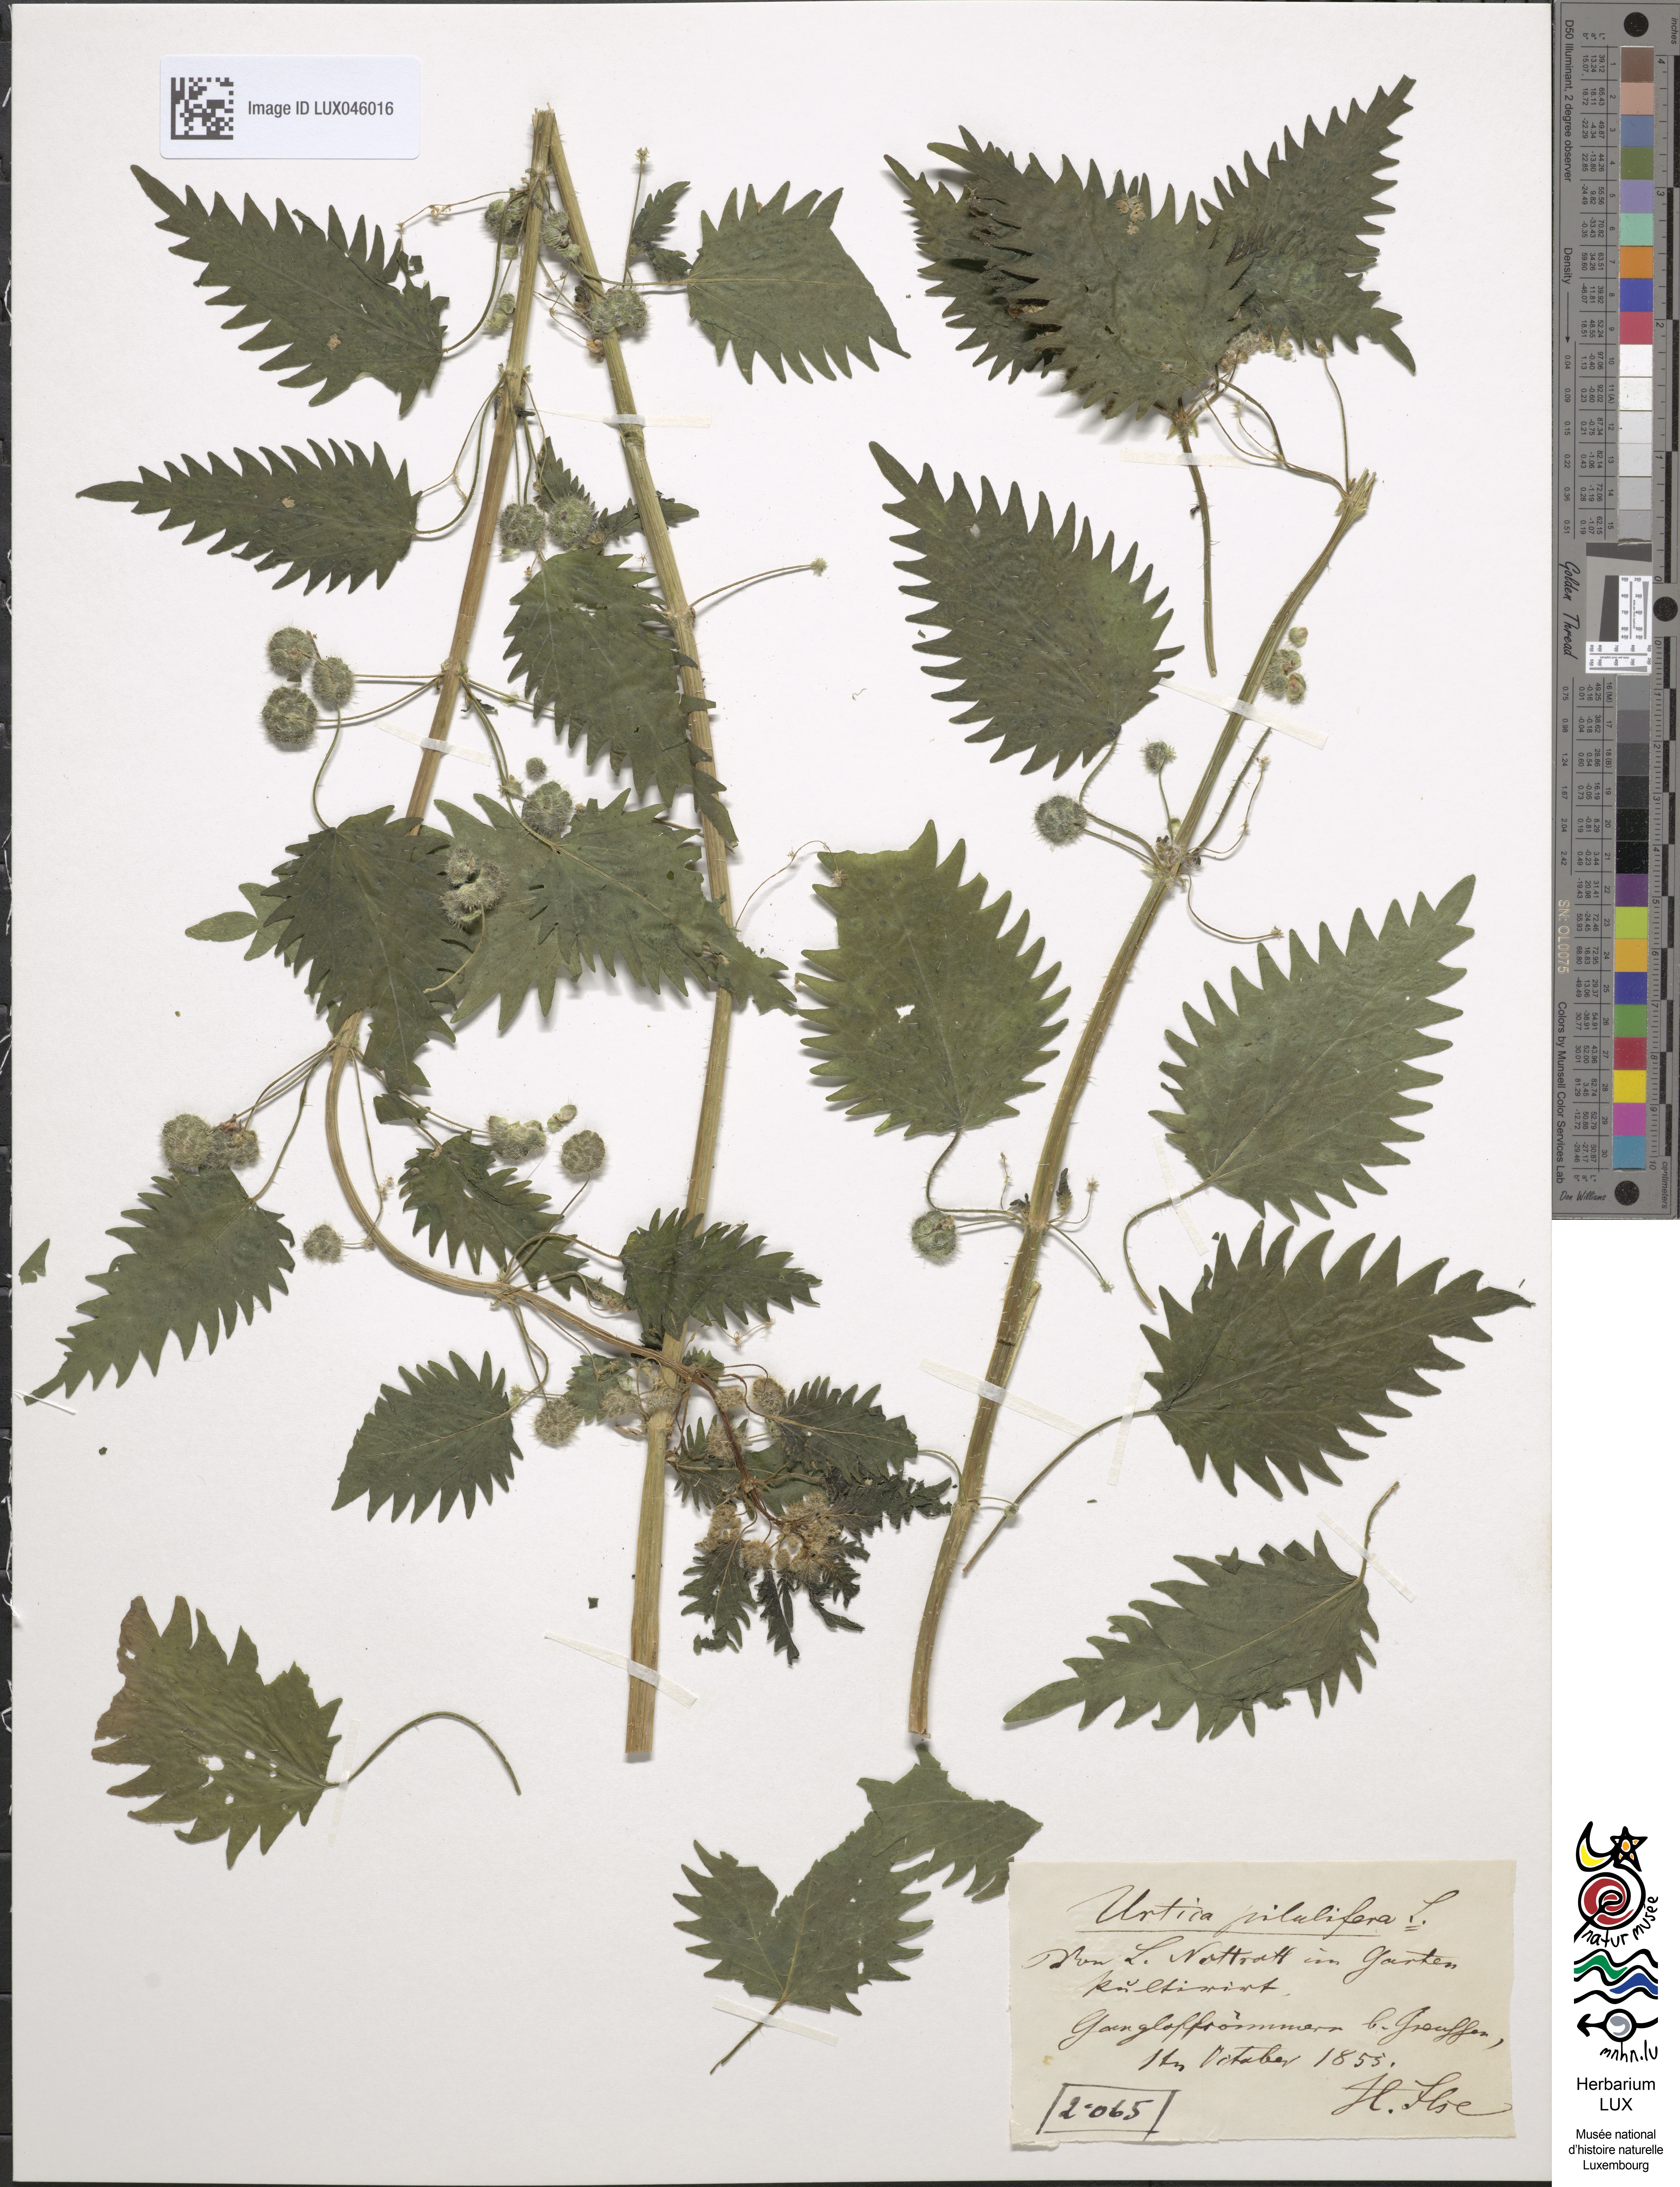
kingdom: Plantae
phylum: Tracheophyta
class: Magnoliopsida
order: Rosales
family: Urticaceae
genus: Urtica
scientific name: Urtica pilulifera
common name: Roman nettle
